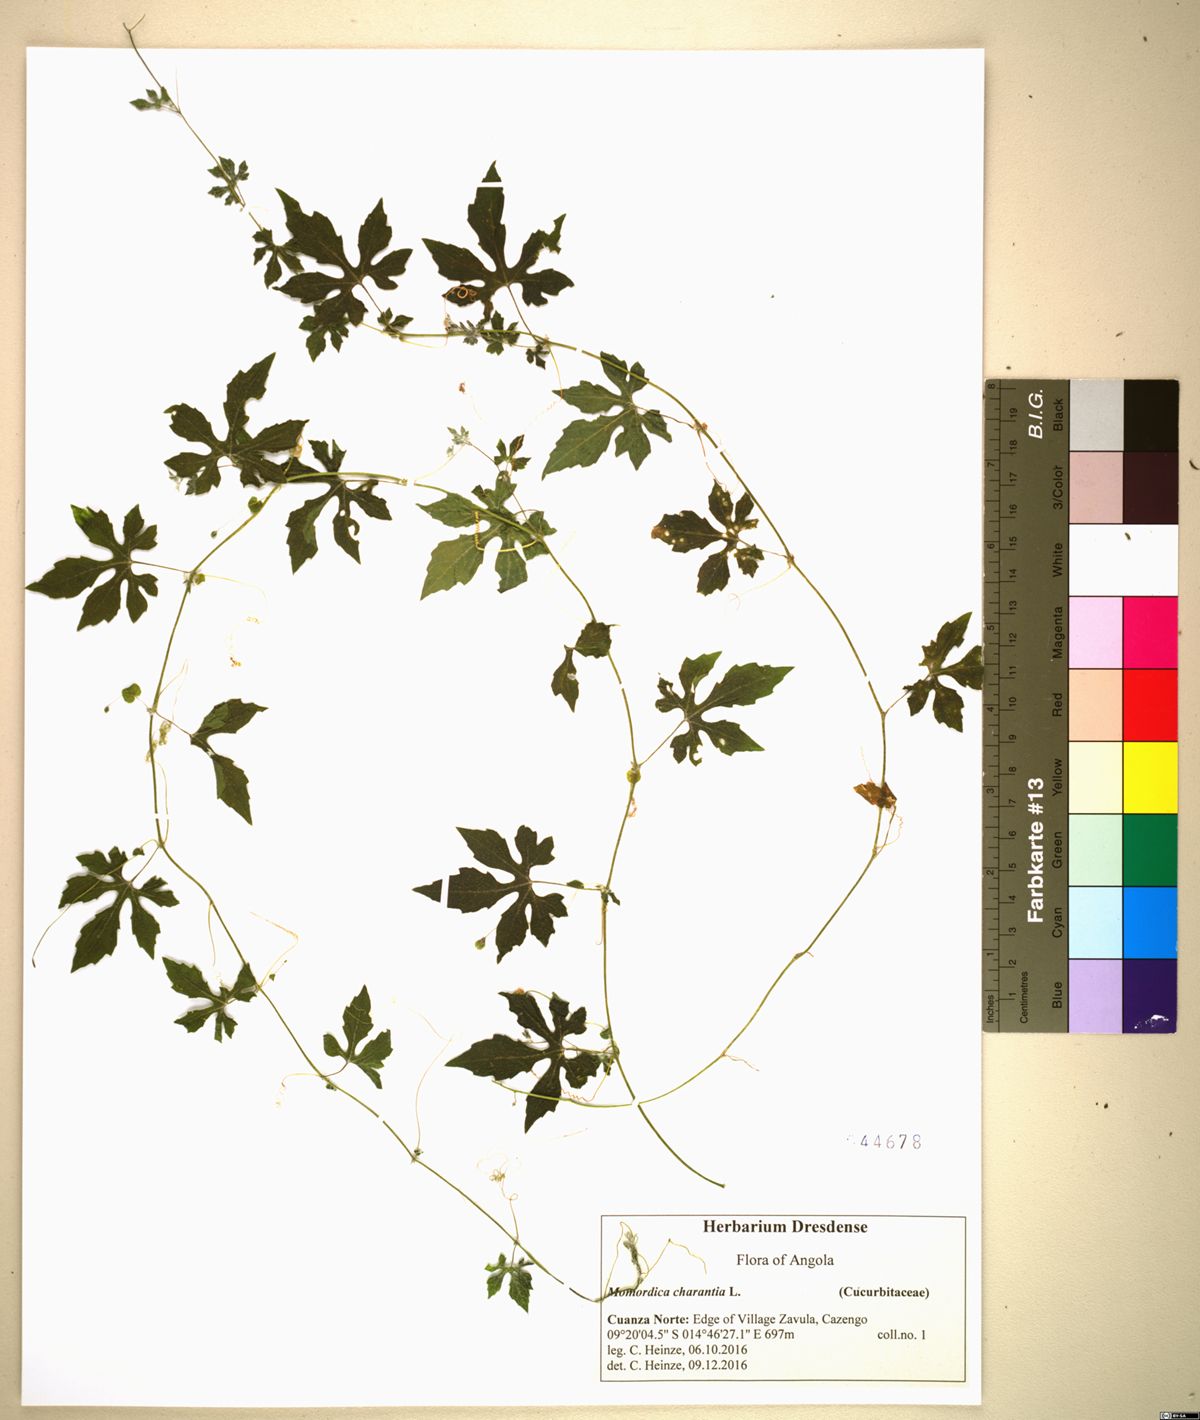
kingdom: Plantae
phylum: Tracheophyta
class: Magnoliopsida
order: Cucurbitales
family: Cucurbitaceae
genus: Momordica
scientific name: Momordica charantia
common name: Balsampear
